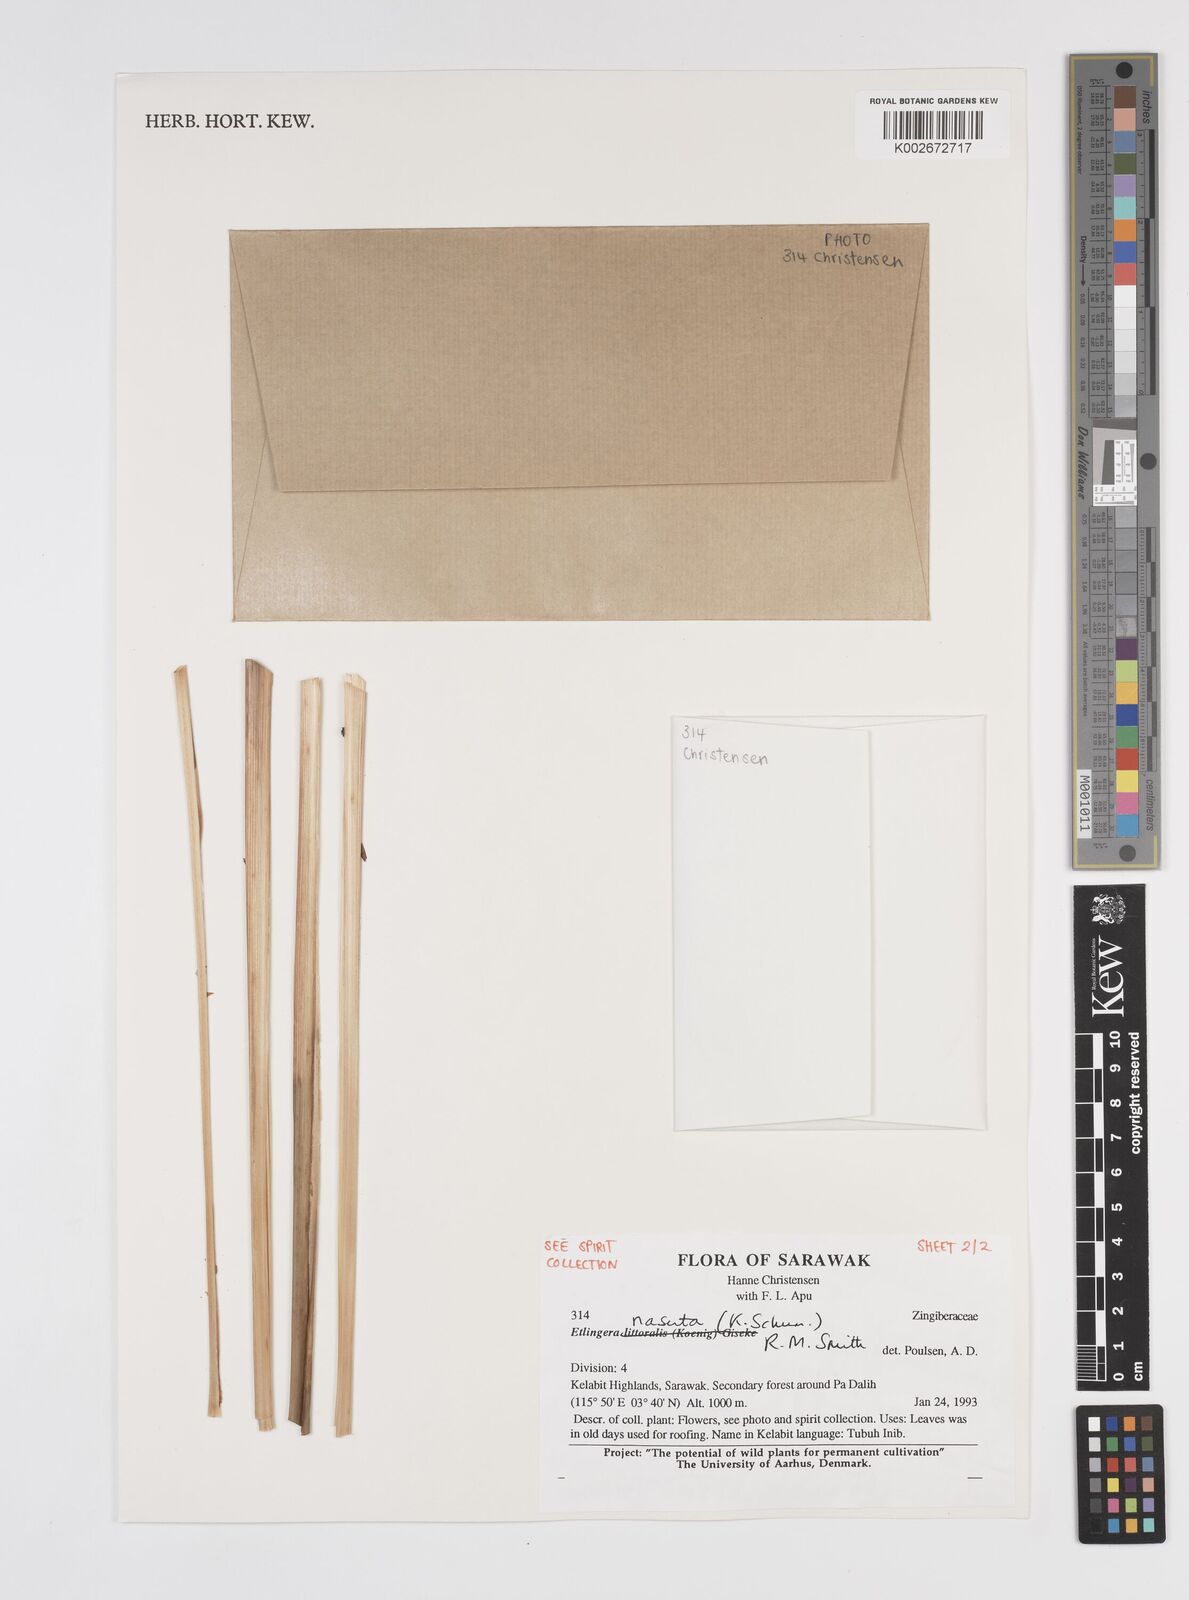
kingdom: Plantae
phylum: Tracheophyta
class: Liliopsida
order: Zingiberales
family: Zingiberaceae
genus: Etlingera
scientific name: Etlingera nasuta
